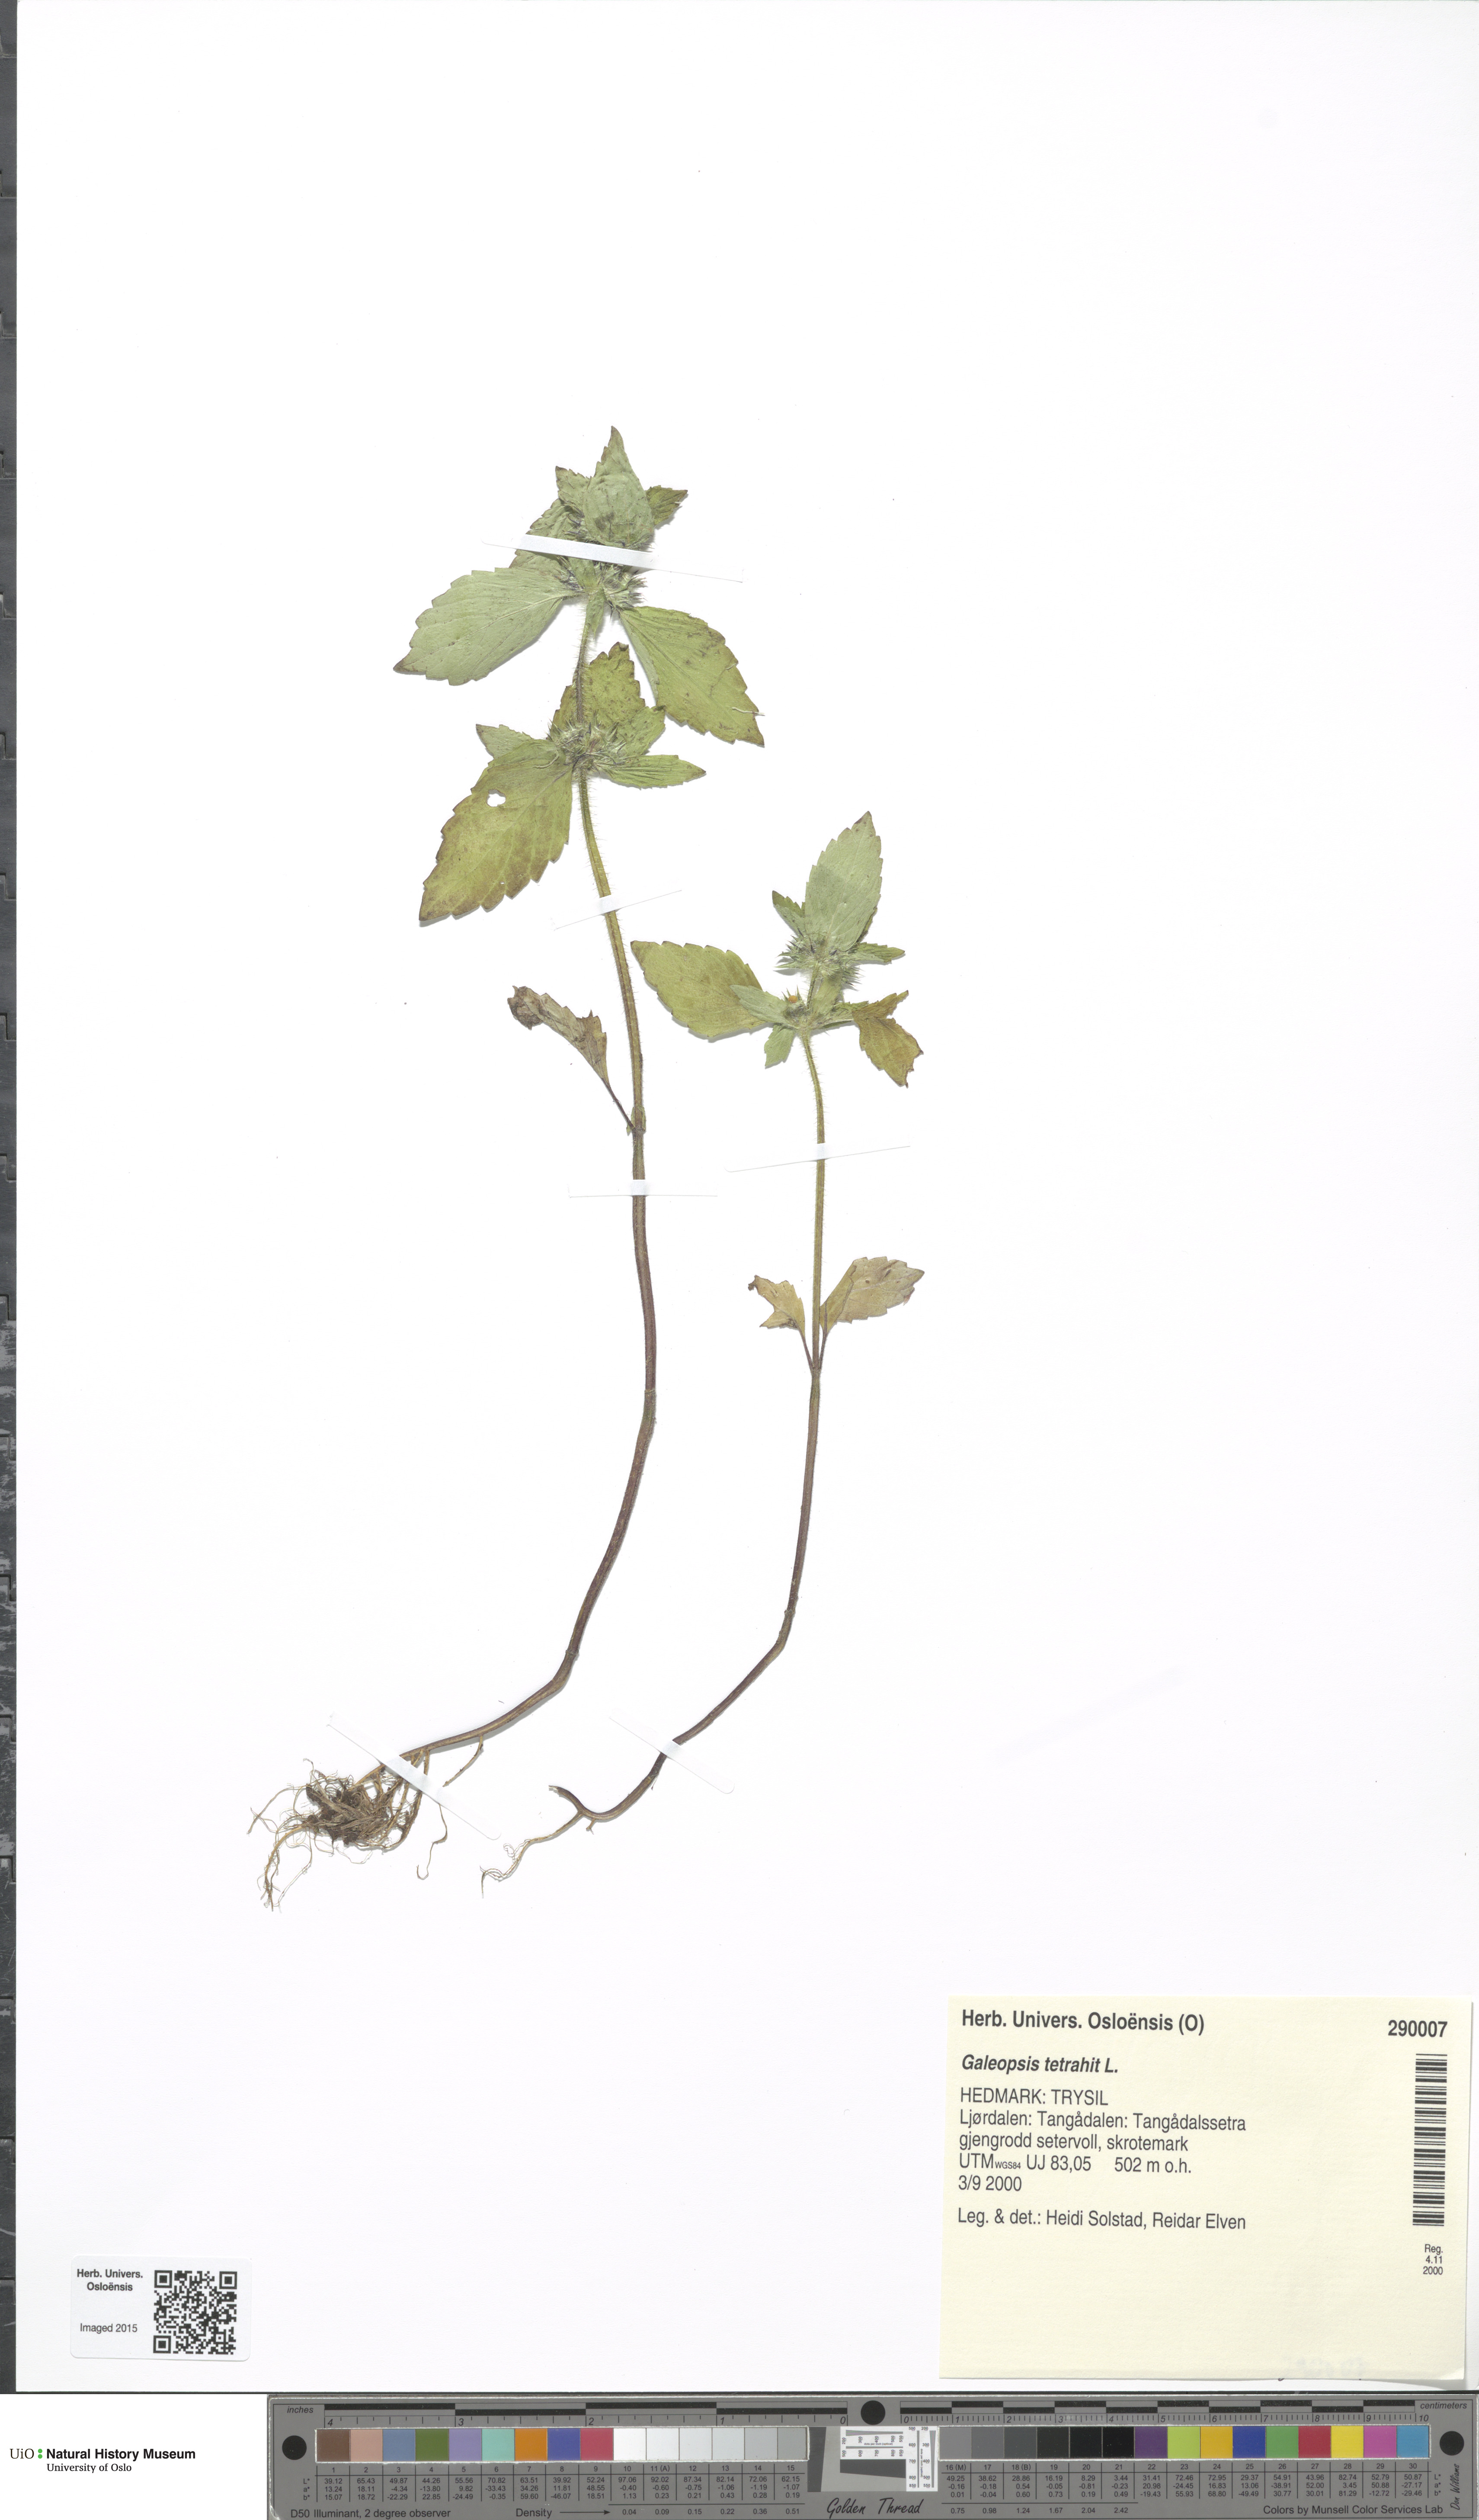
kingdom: Plantae
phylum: Tracheophyta
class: Magnoliopsida
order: Lamiales
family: Lamiaceae
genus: Galeopsis
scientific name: Galeopsis tetrahit
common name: Common hemp-nettle
